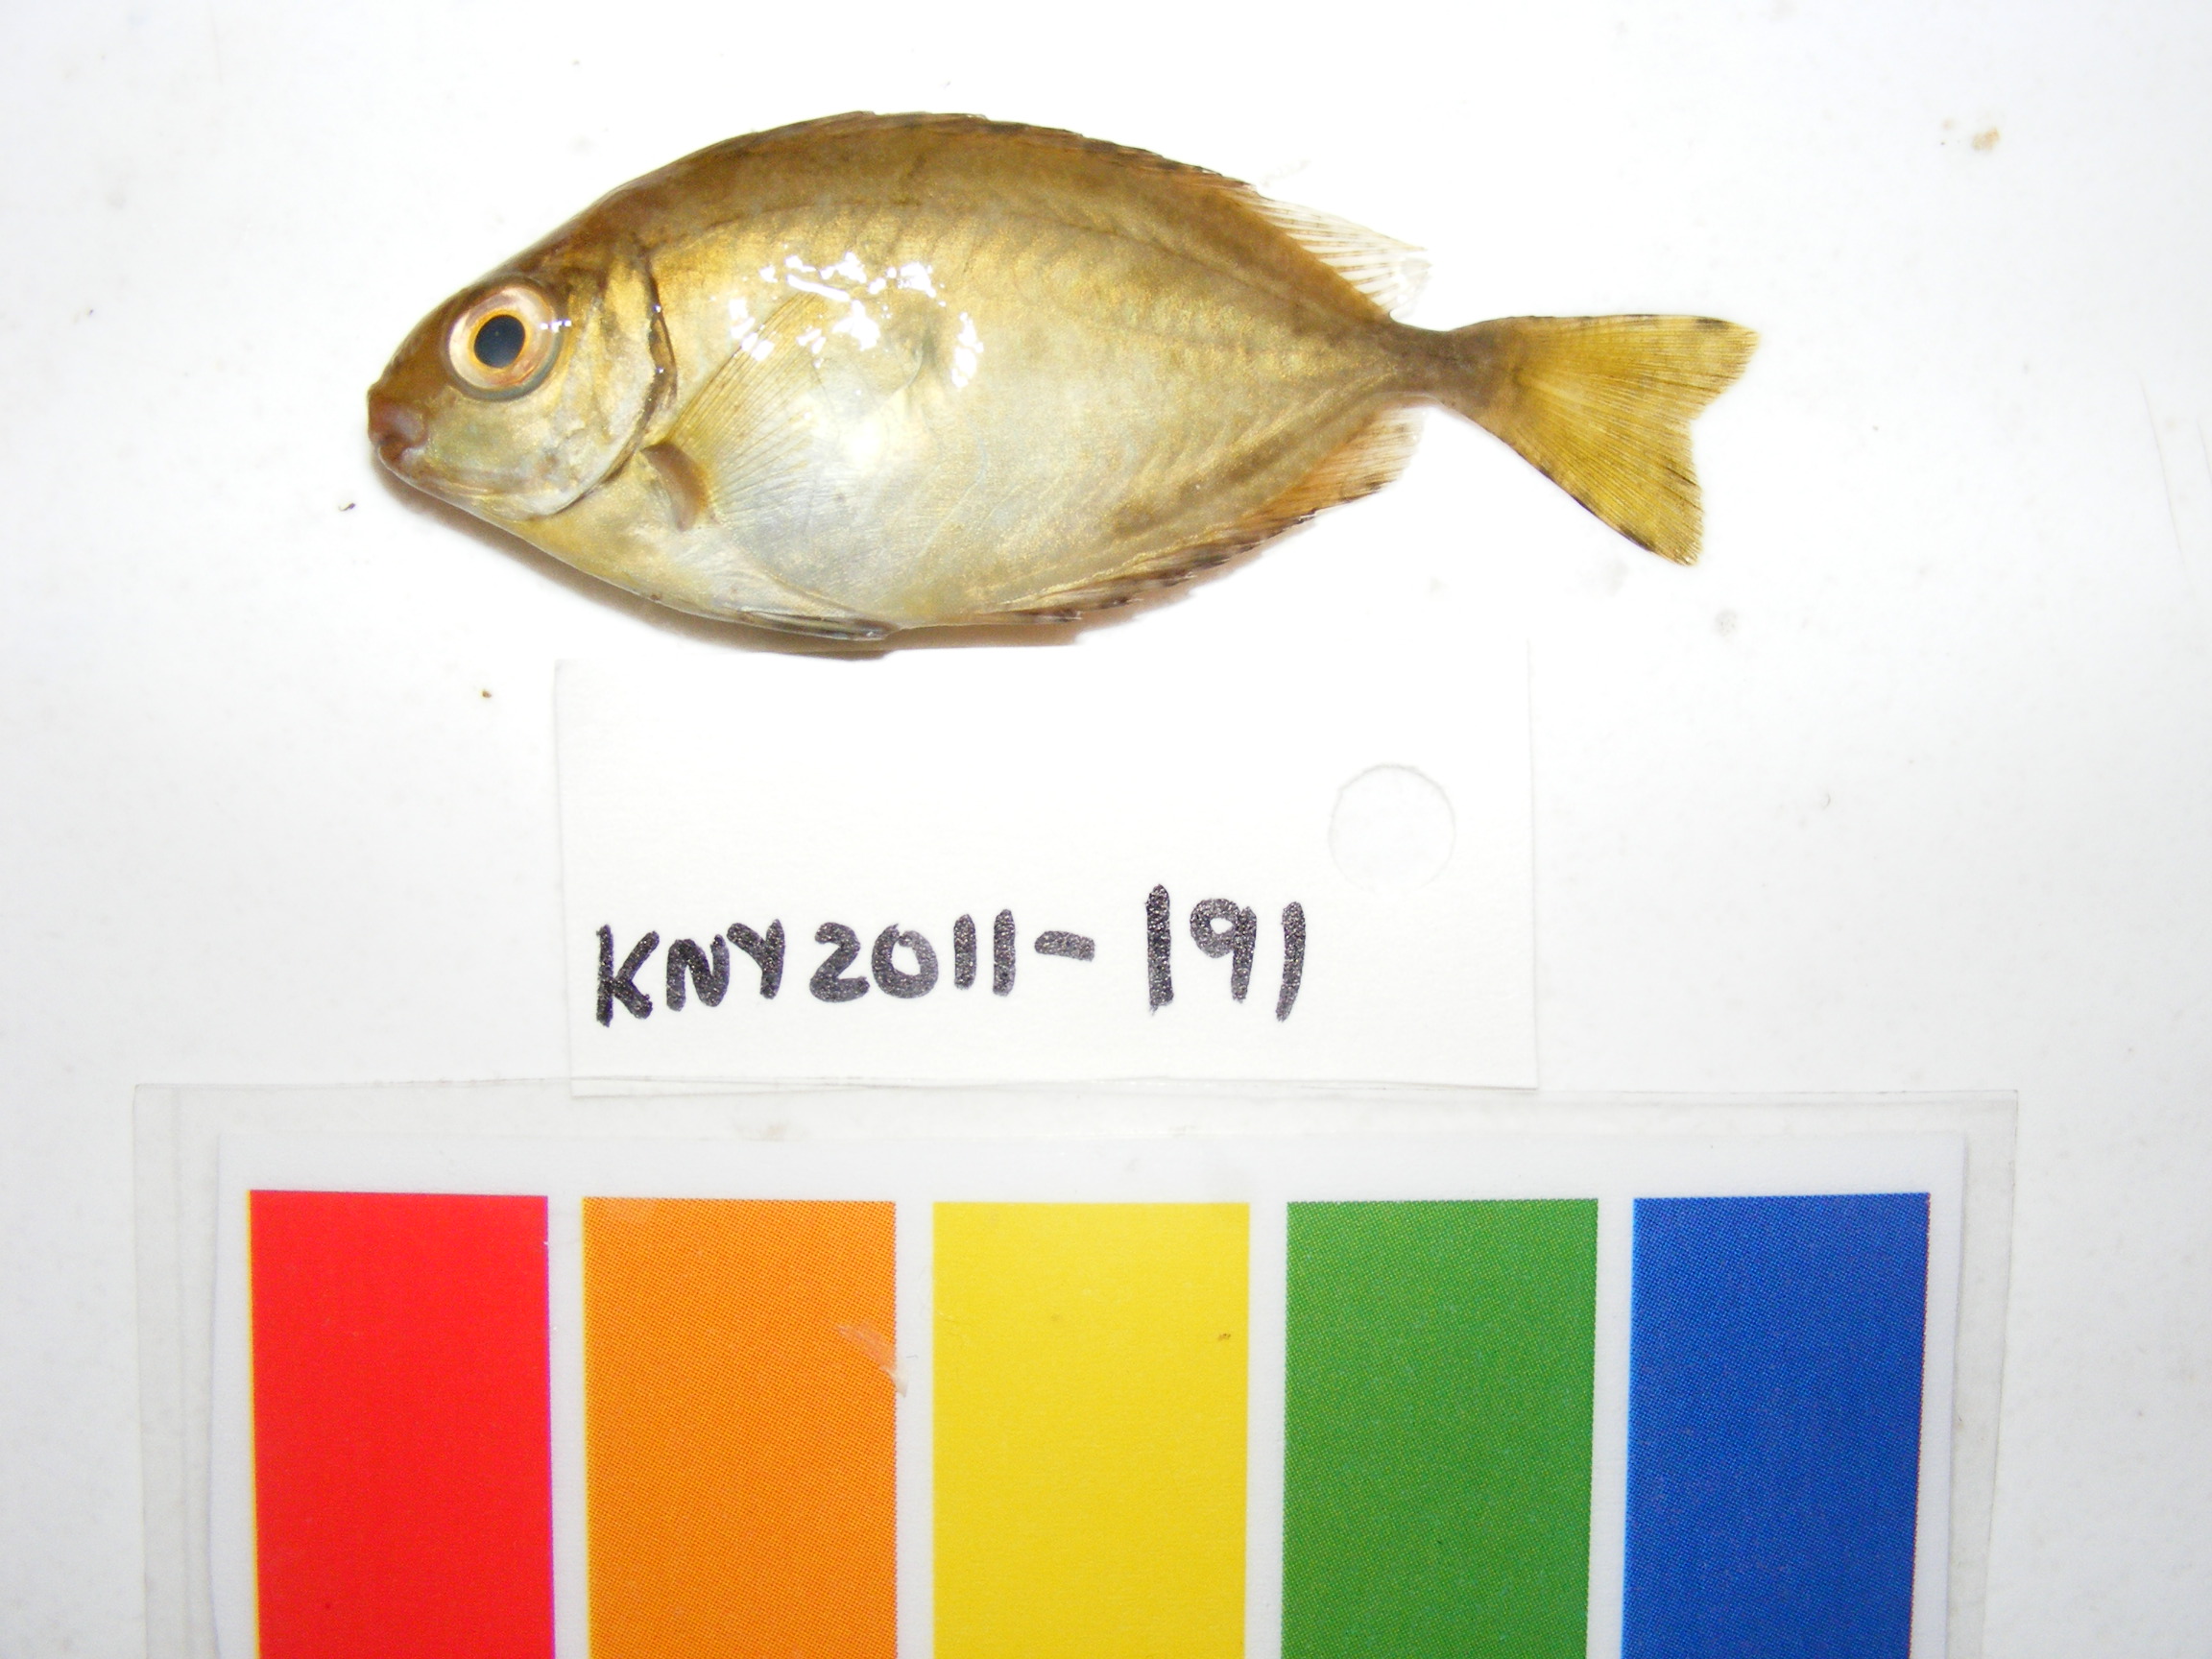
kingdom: Animalia
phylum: Chordata
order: Perciformes
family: Siganidae
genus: Siganus
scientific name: Siganus
